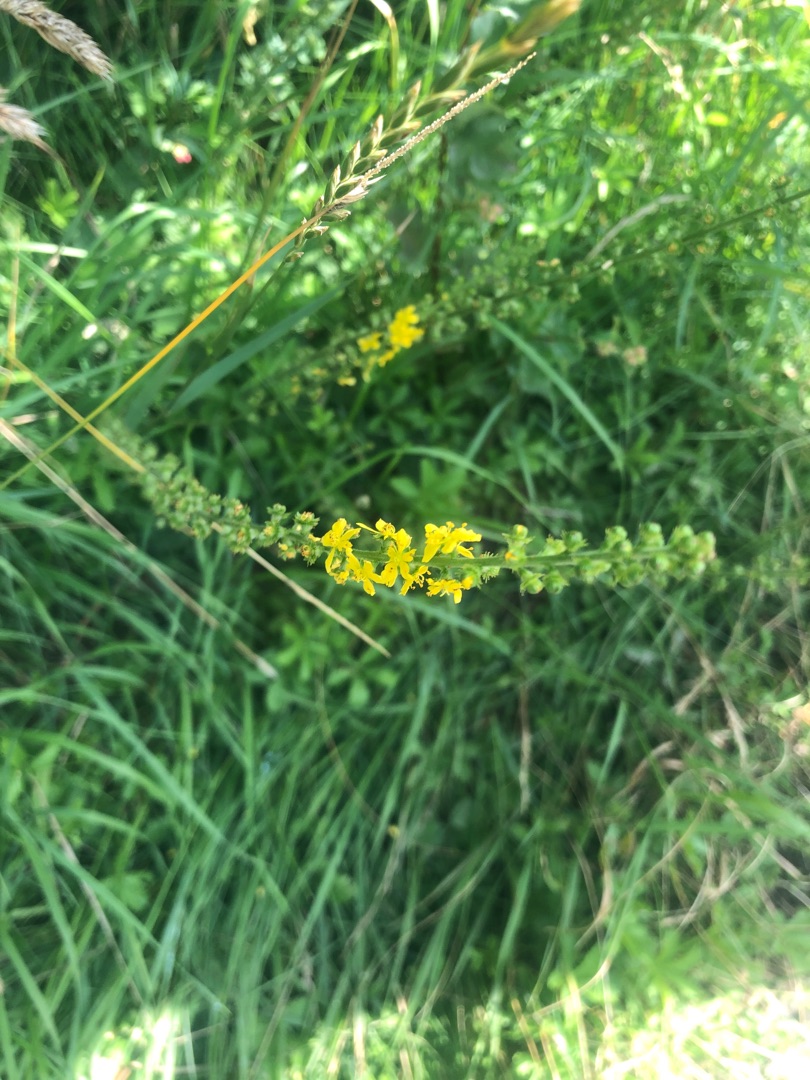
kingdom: Plantae
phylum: Tracheophyta
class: Magnoliopsida
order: Rosales
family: Rosaceae
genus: Agrimonia
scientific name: Agrimonia eupatoria
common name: Almindelig agermåne
